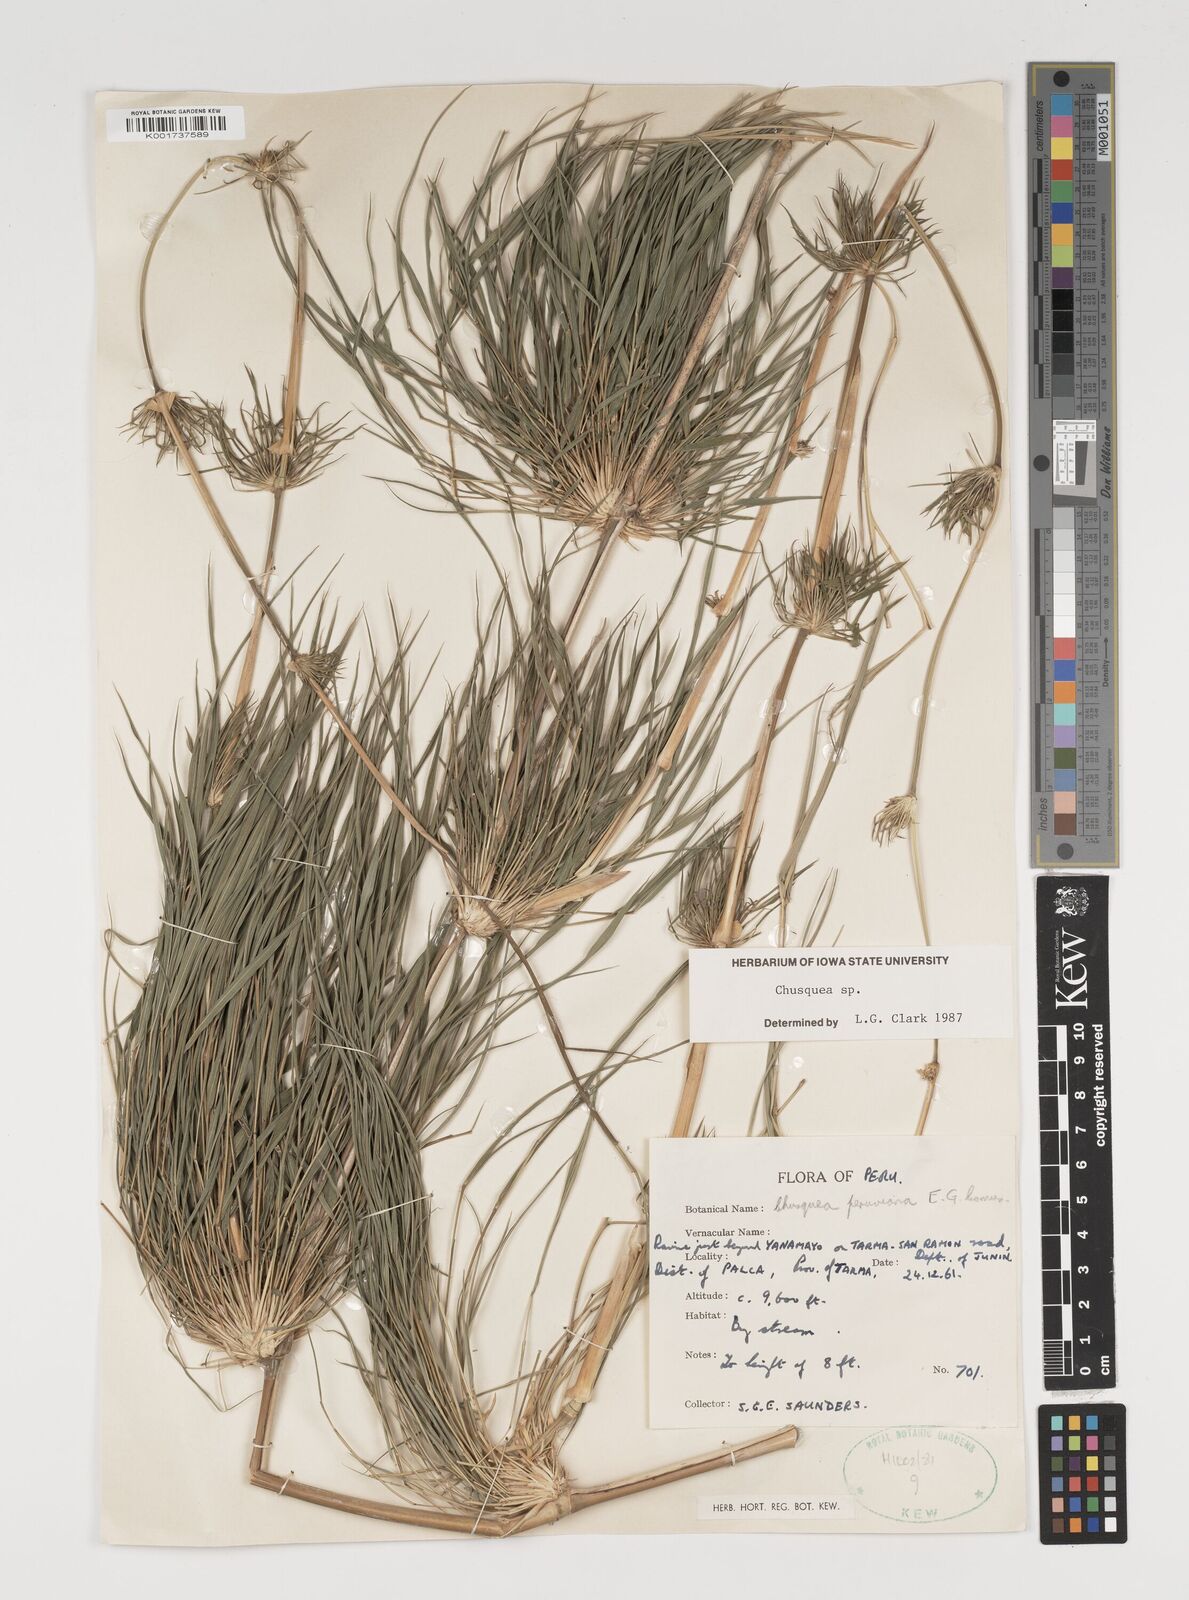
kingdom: Plantae
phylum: Tracheophyta
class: Liliopsida
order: Poales
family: Poaceae
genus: Chusquea
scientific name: Chusquea
